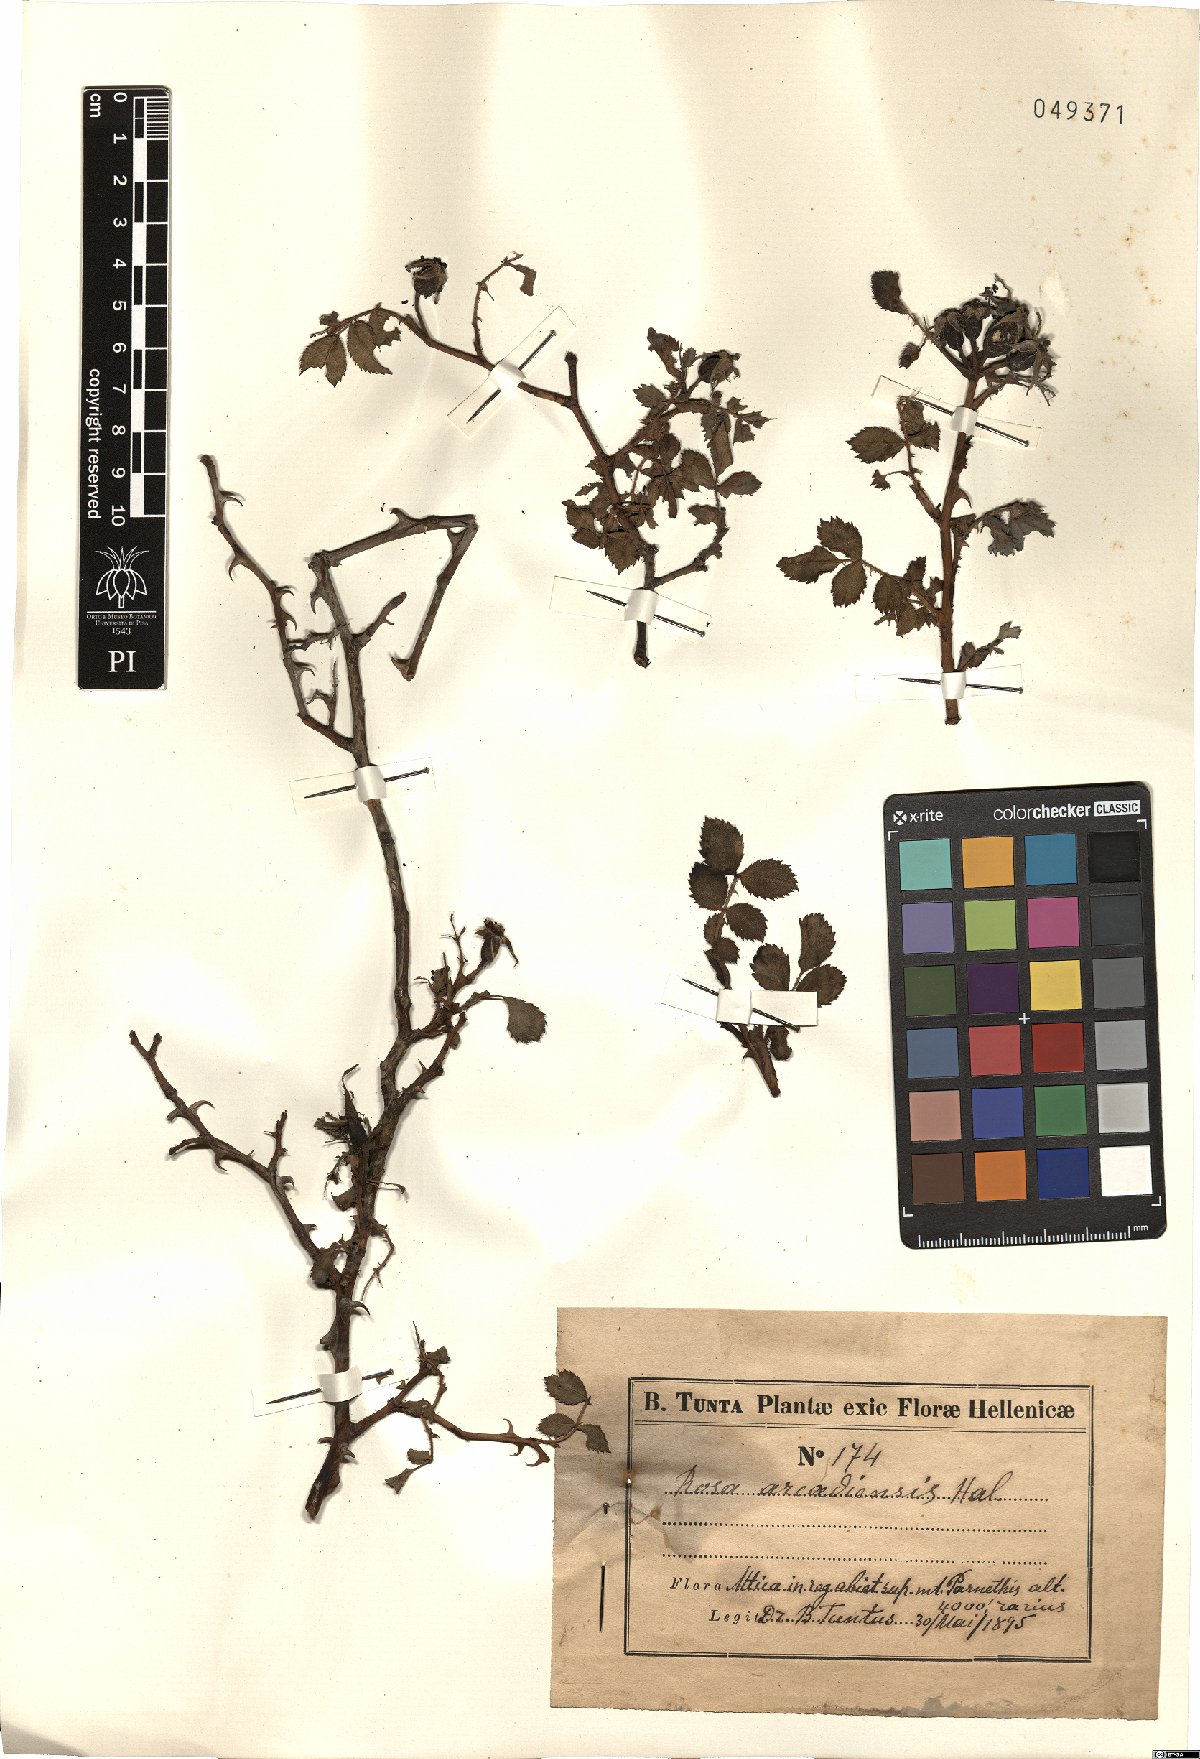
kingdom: Plantae
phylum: Tracheophyta
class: Magnoliopsida
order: Rosales
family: Rosaceae
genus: Rosa
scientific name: Rosa
